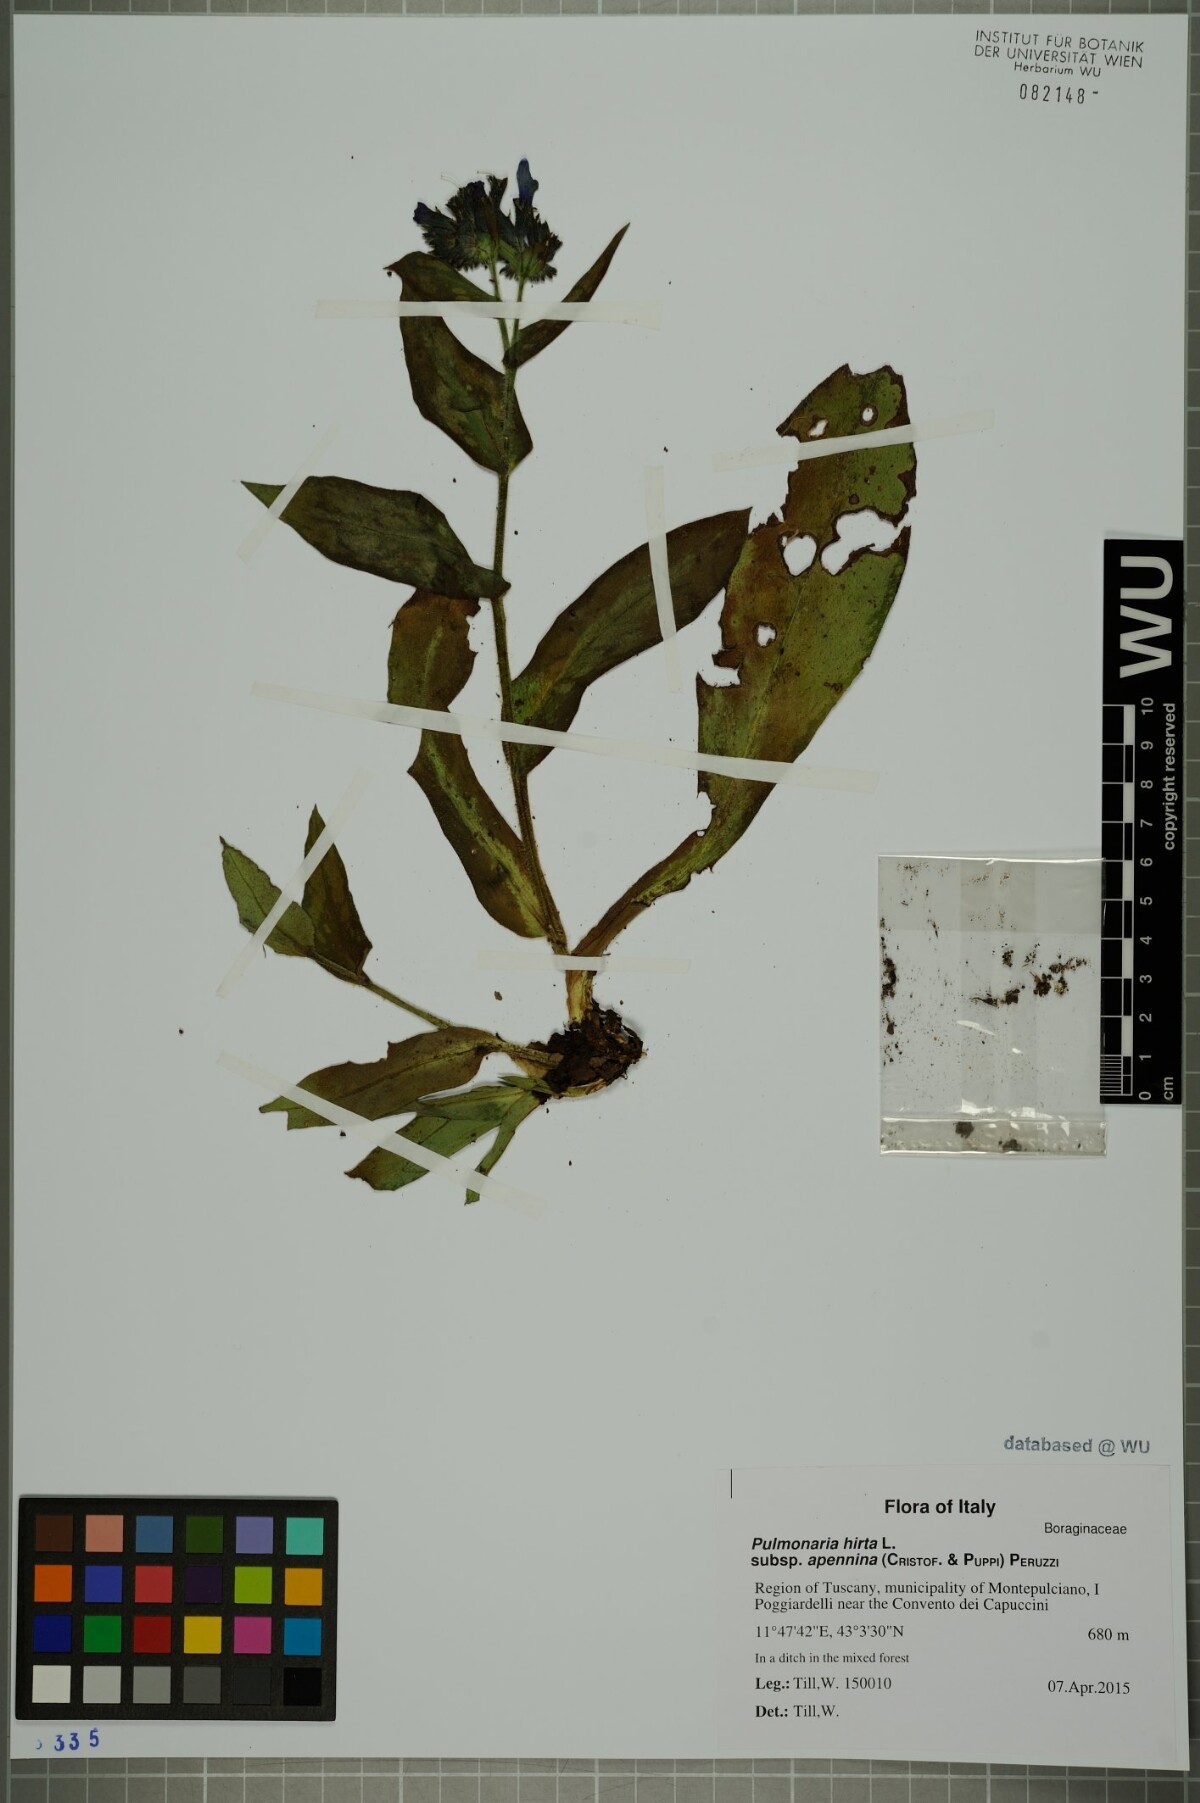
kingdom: Plantae
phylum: Tracheophyta
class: Magnoliopsida
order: Boraginales
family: Boraginaceae
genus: Pulmonaria
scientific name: Pulmonaria hirta
